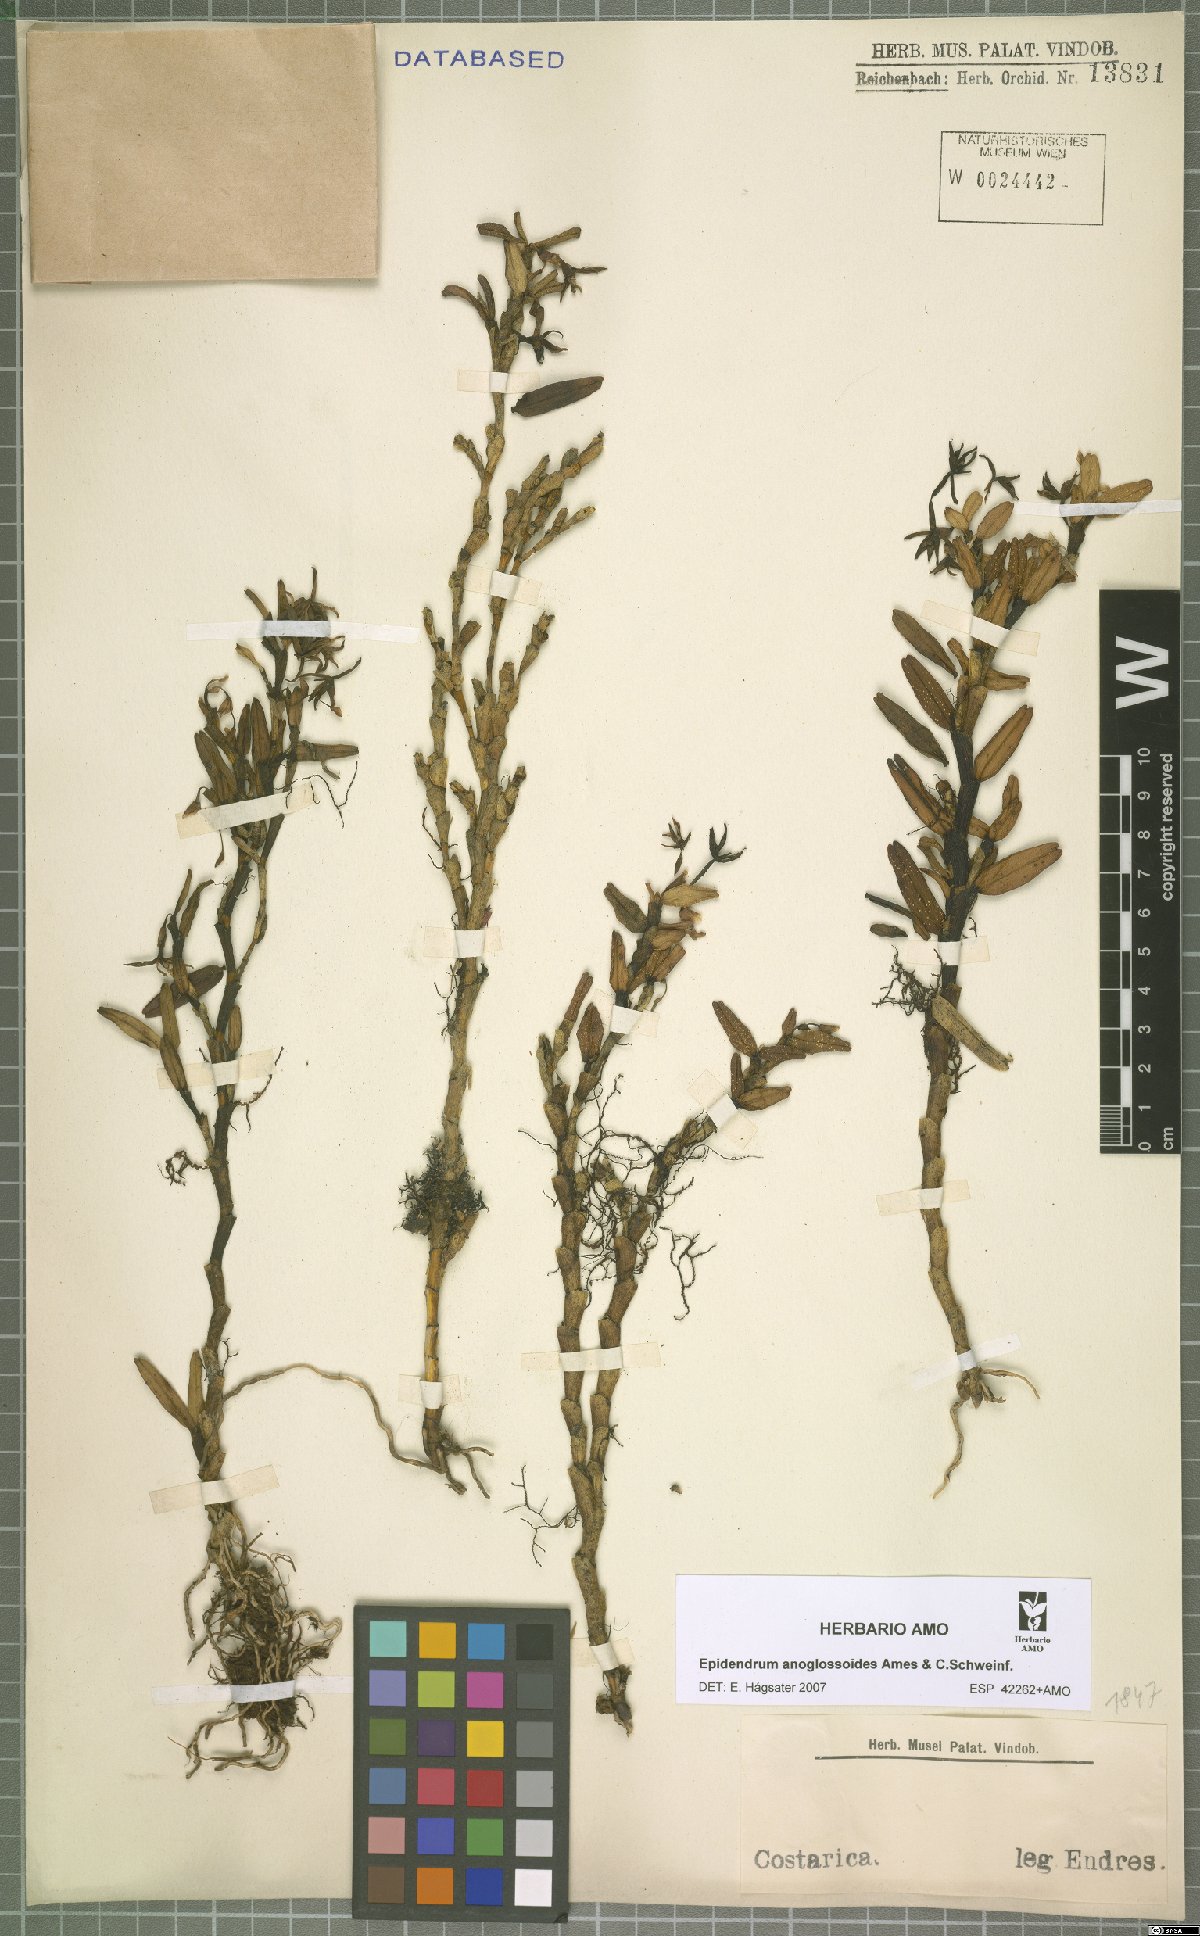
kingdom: Plantae
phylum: Tracheophyta
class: Liliopsida
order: Asparagales
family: Orchidaceae
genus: Epidendrum
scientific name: Epidendrum anoglossoides
